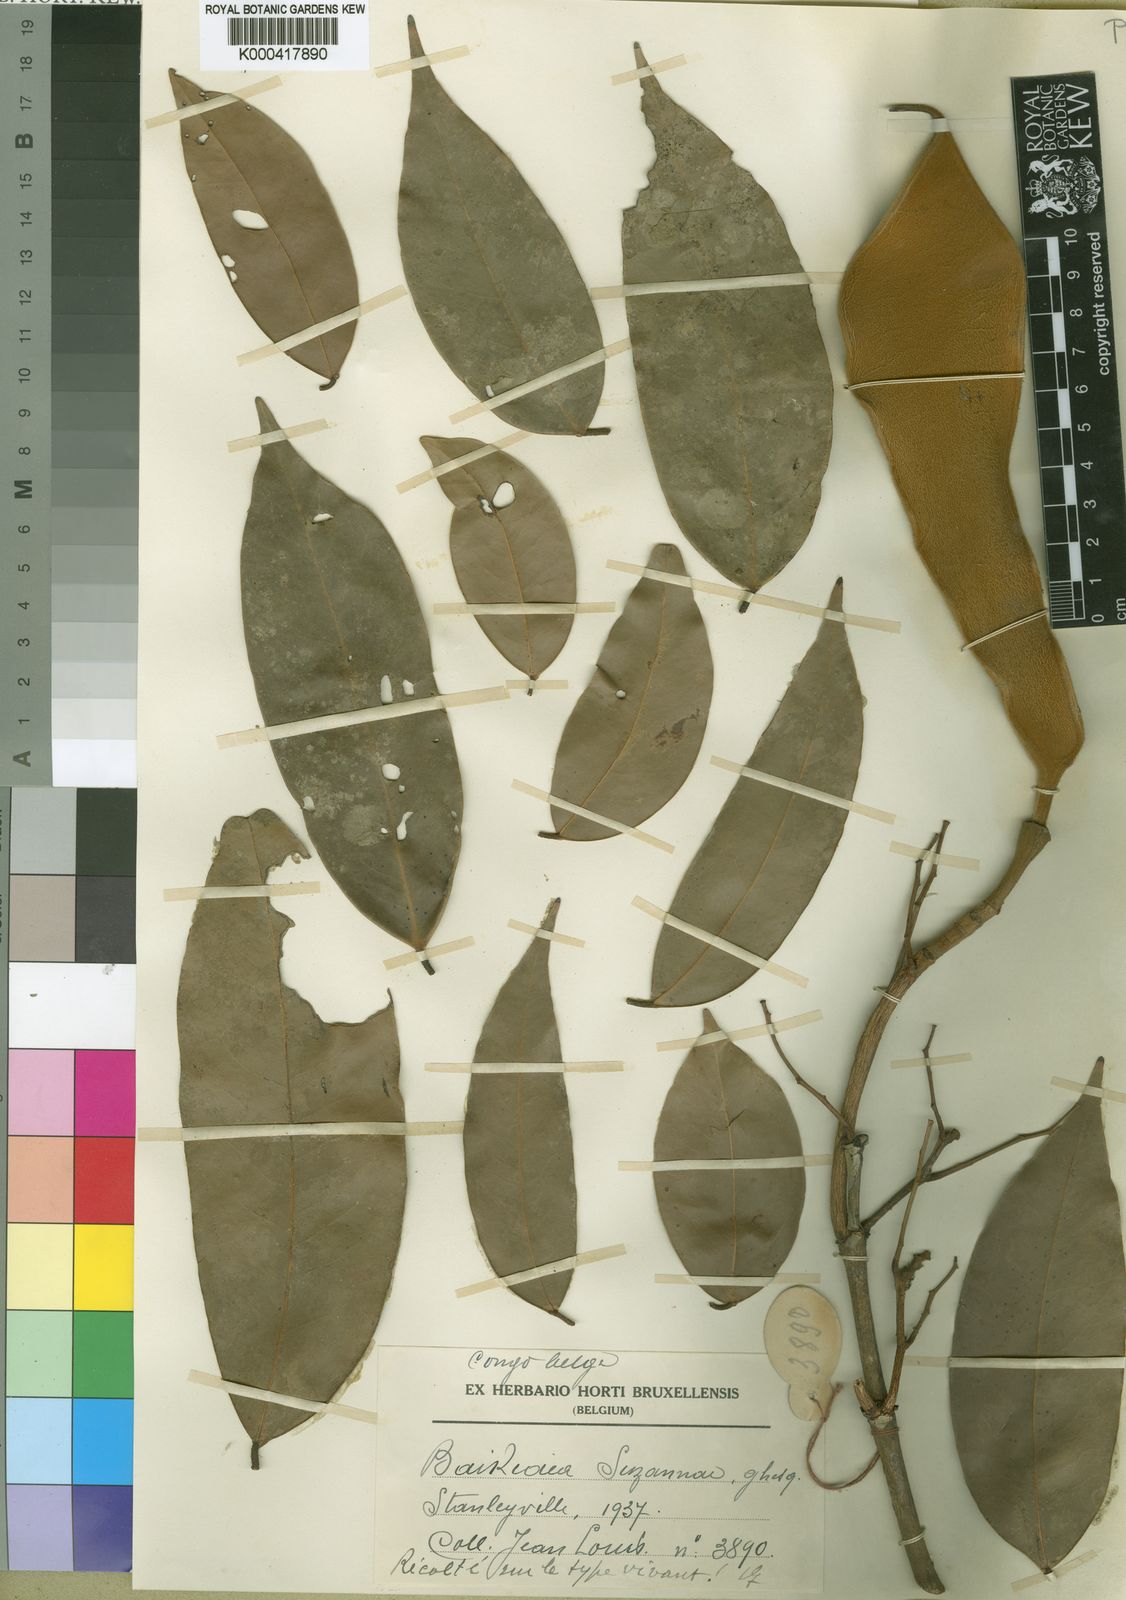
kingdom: Plantae
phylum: Tracheophyta
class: Magnoliopsida
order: Fabales
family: Fabaceae
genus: Baikiaea
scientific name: Baikiaea suzannae
